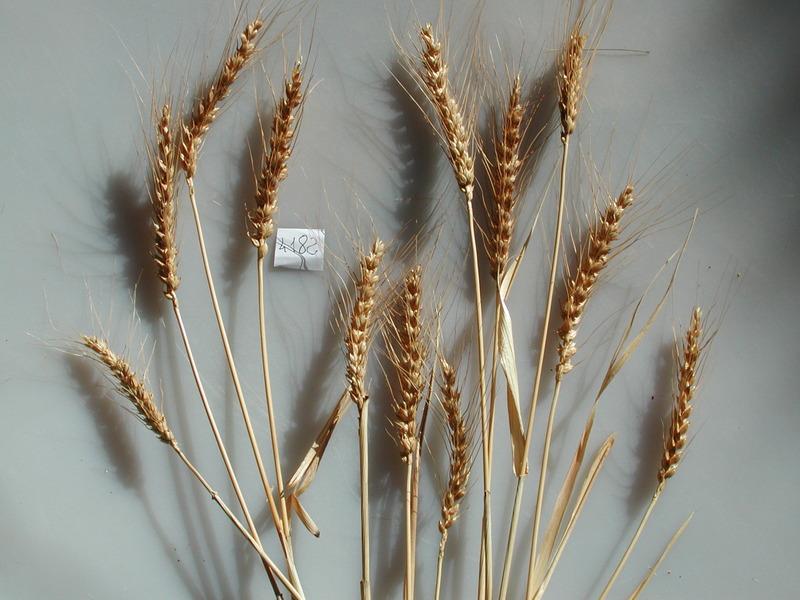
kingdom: Plantae
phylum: Tracheophyta
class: Liliopsida
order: Poales
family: Poaceae
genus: Triticum
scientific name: Triticum aestivum
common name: Wheat
